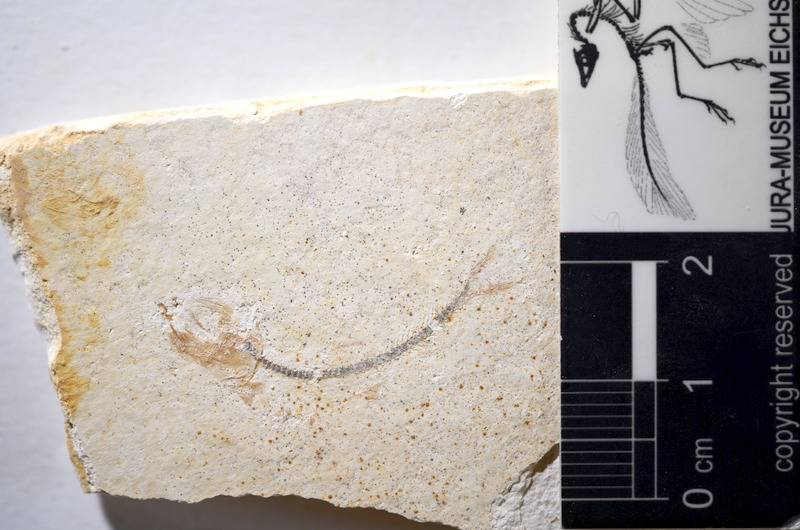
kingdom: Animalia
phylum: Chordata
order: Salmoniformes
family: Orthogonikleithridae
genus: Orthogonikleithrus
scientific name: Orthogonikleithrus hoelli
